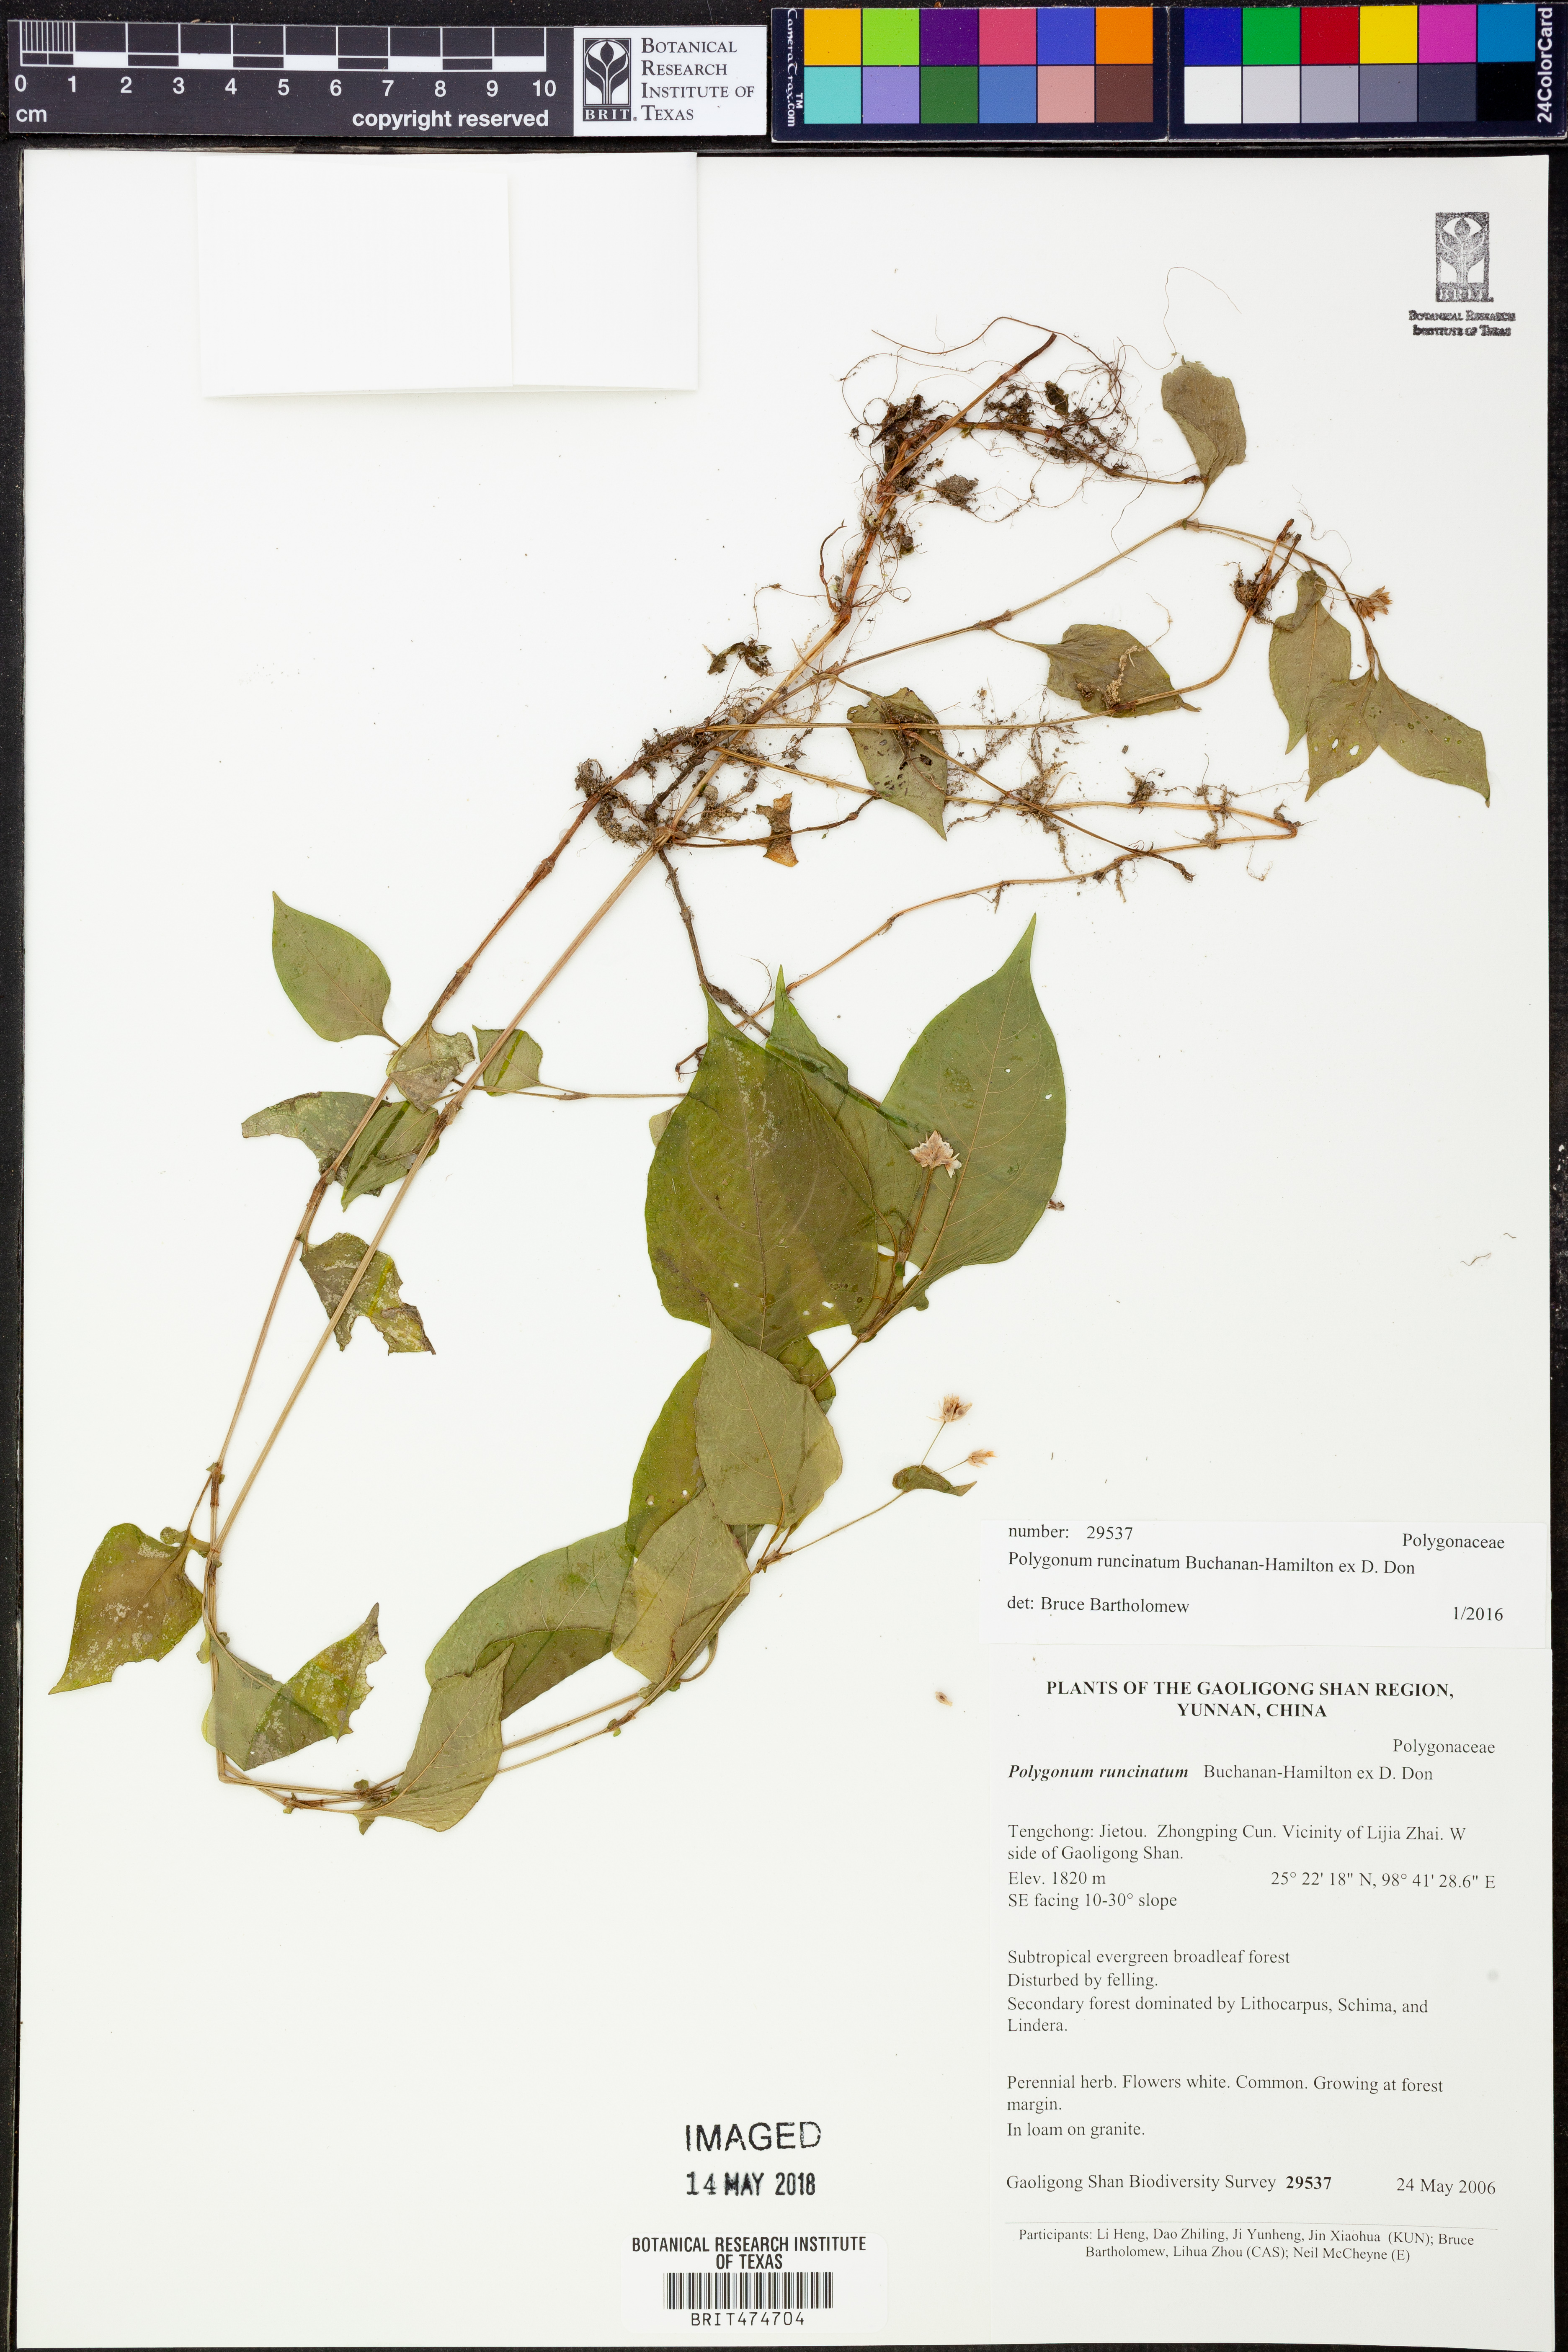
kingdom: Plantae
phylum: Tracheophyta
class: Magnoliopsida
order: Caryophyllales
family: Polygonaceae
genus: Persicaria
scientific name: Persicaria runcinata
